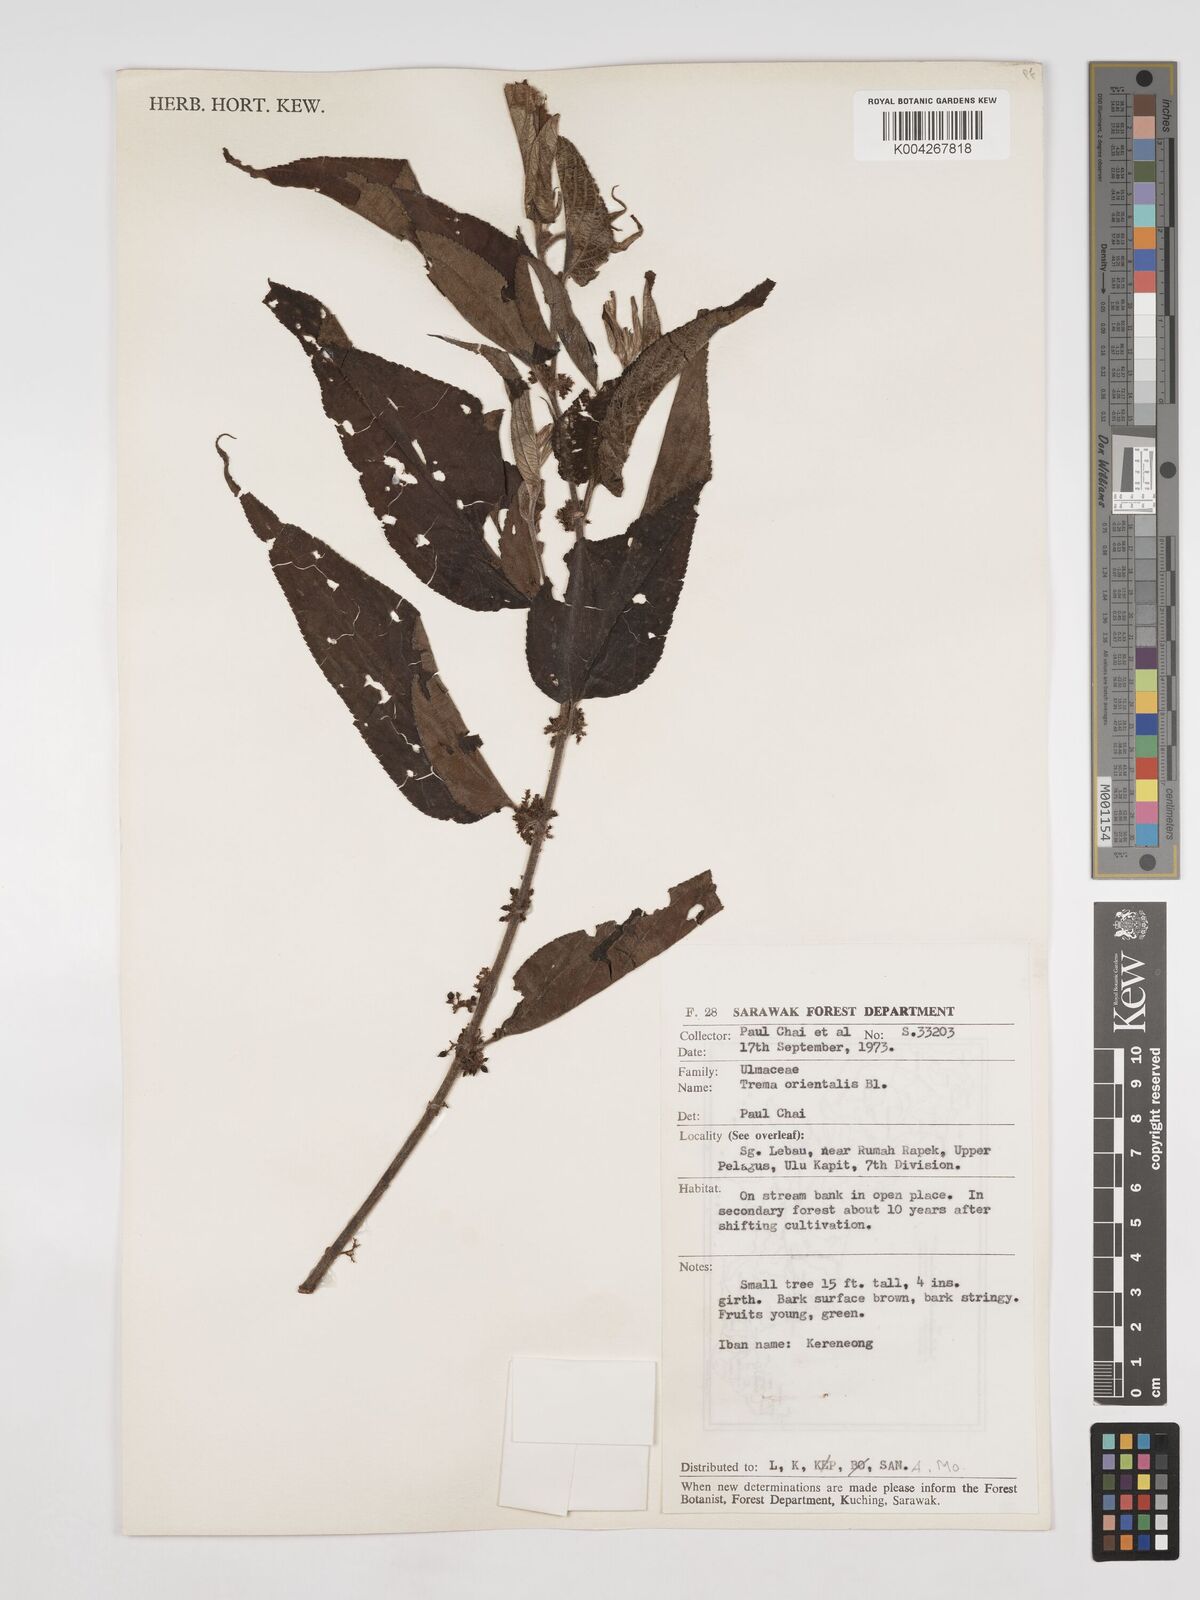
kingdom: Plantae
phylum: Tracheophyta
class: Magnoliopsida
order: Rosales
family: Cannabaceae
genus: Trema
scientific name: Trema orientale
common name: Indian charcoal tree
